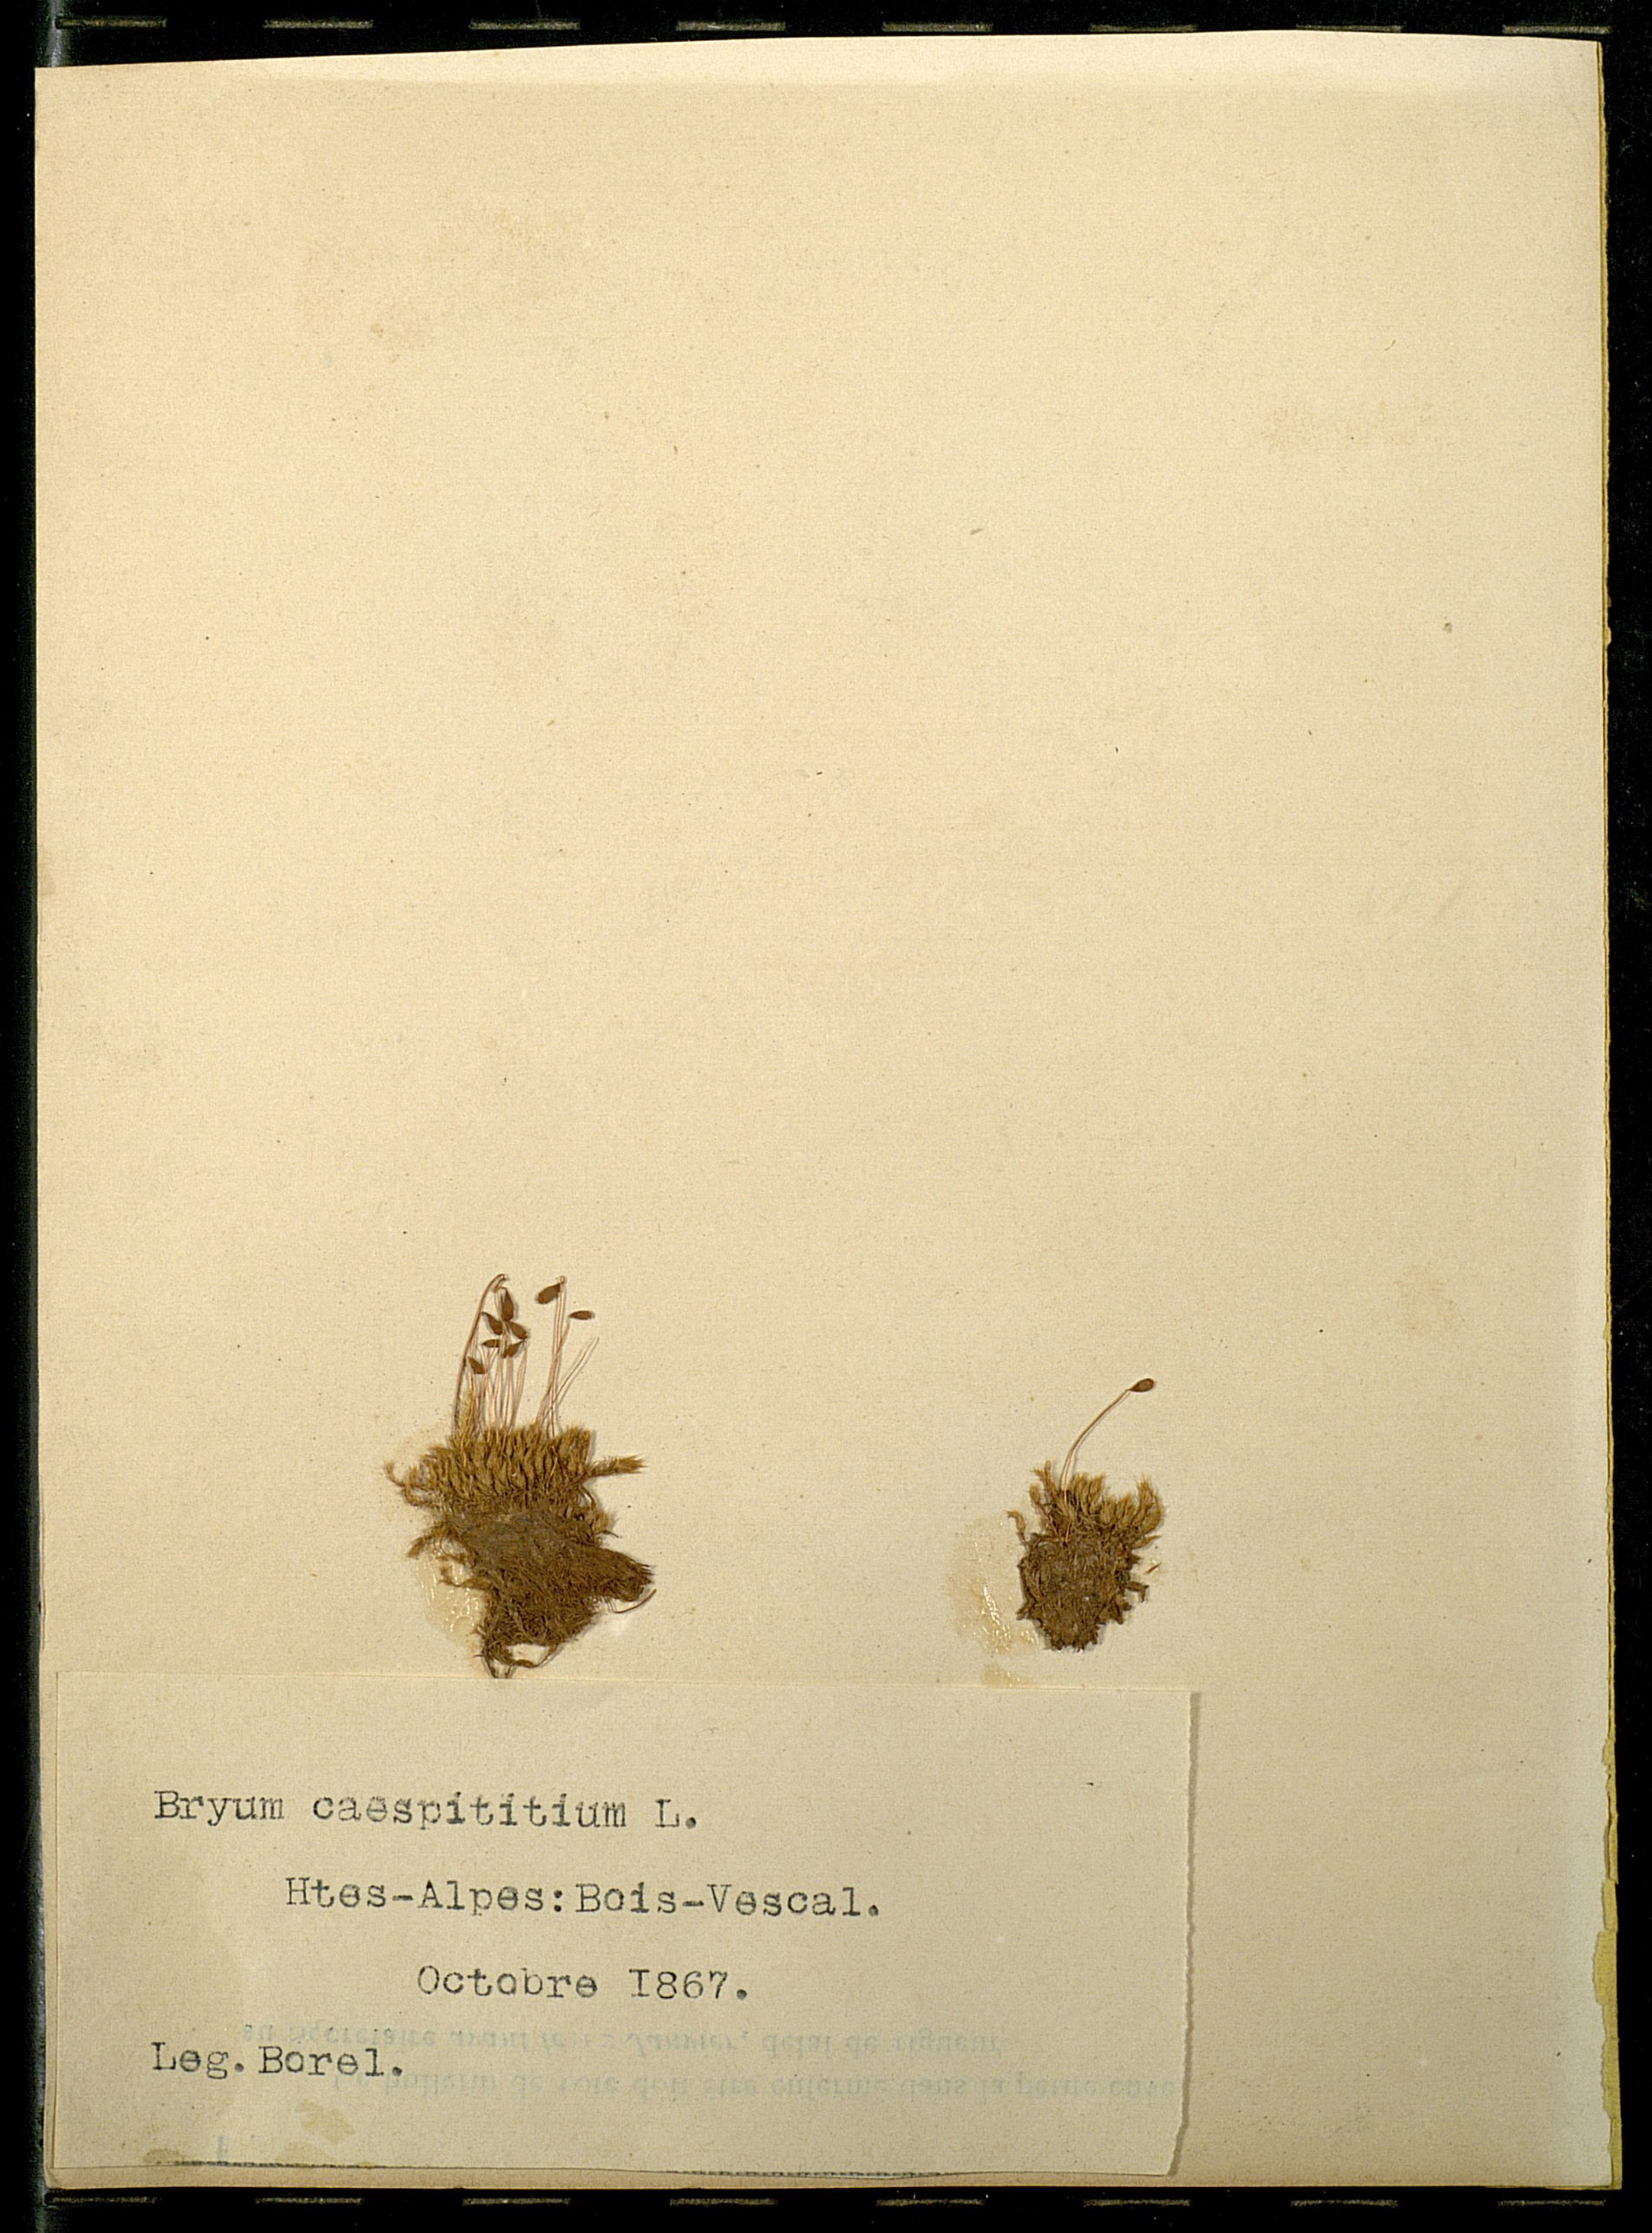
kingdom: Plantae
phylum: Bryophyta
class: Bryopsida
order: Bryales
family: Bryaceae
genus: Gemmabryum
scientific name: Gemmabryum caespiticium
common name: Handbell moss
